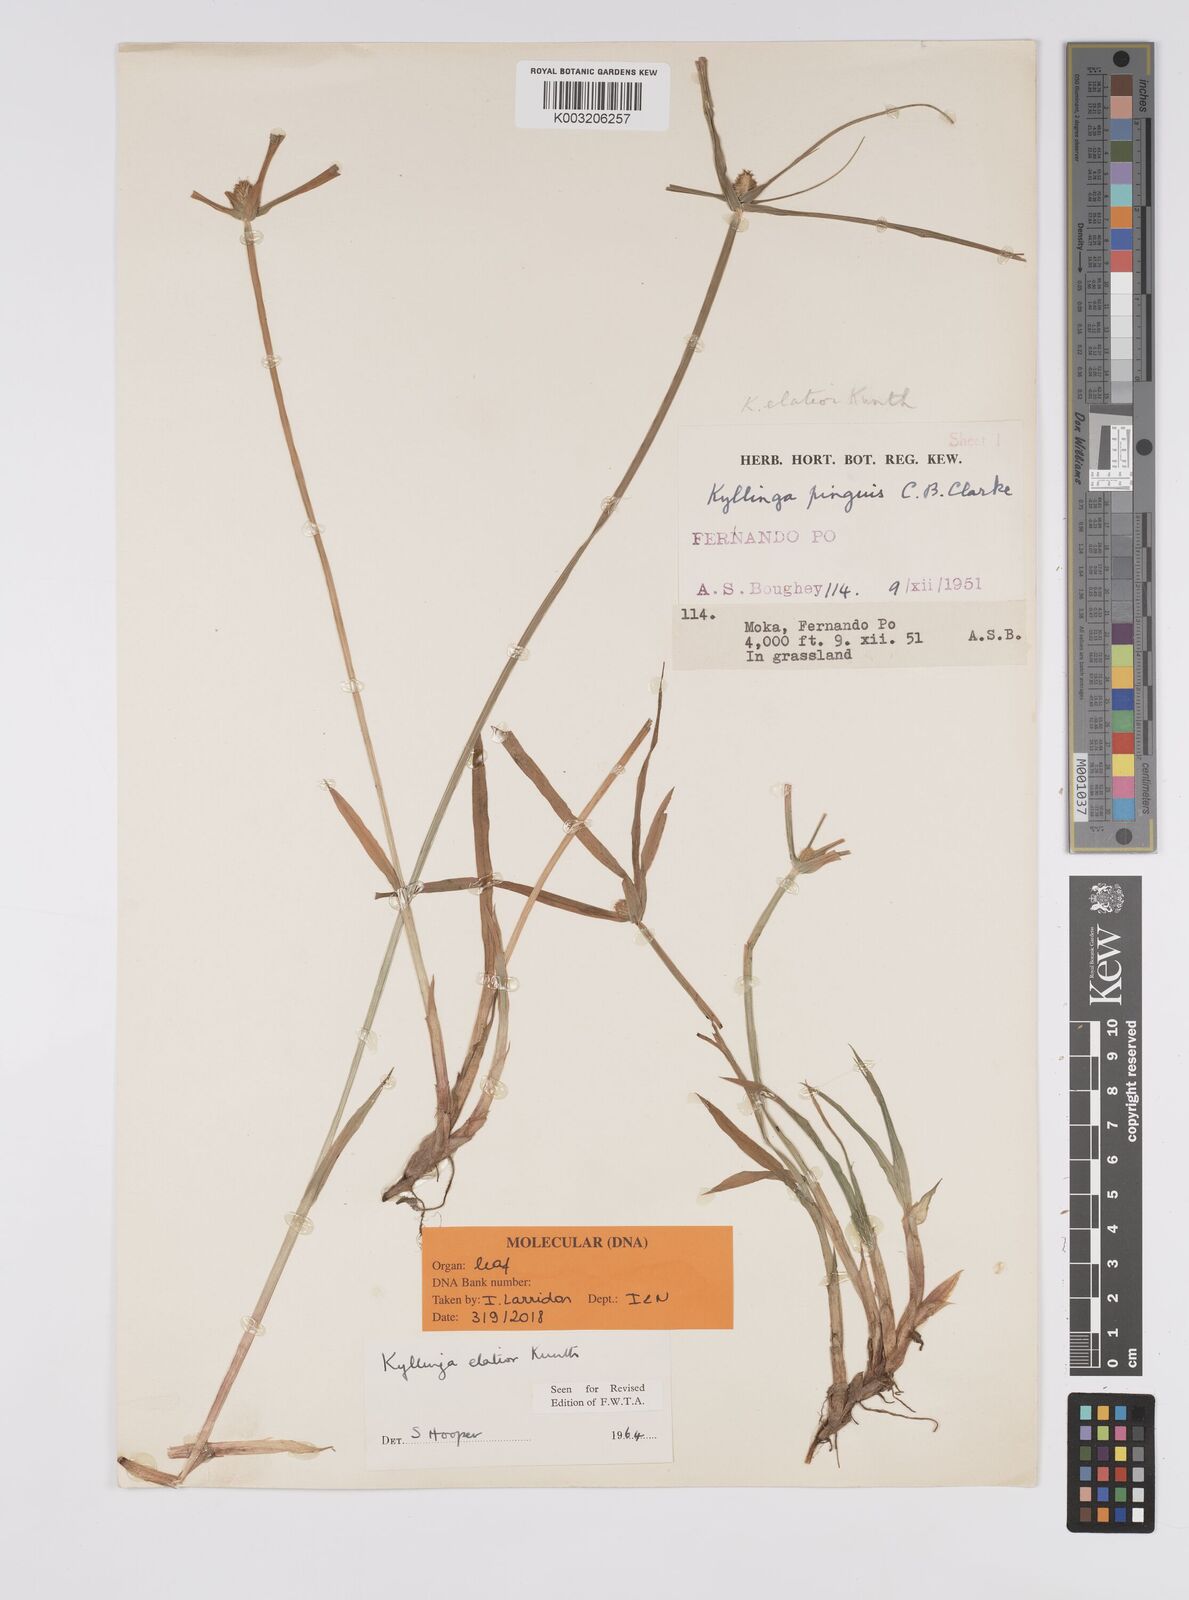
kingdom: Plantae
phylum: Tracheophyta
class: Liliopsida
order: Poales
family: Cyperaceae
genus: Cyperus
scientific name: Cyperus
